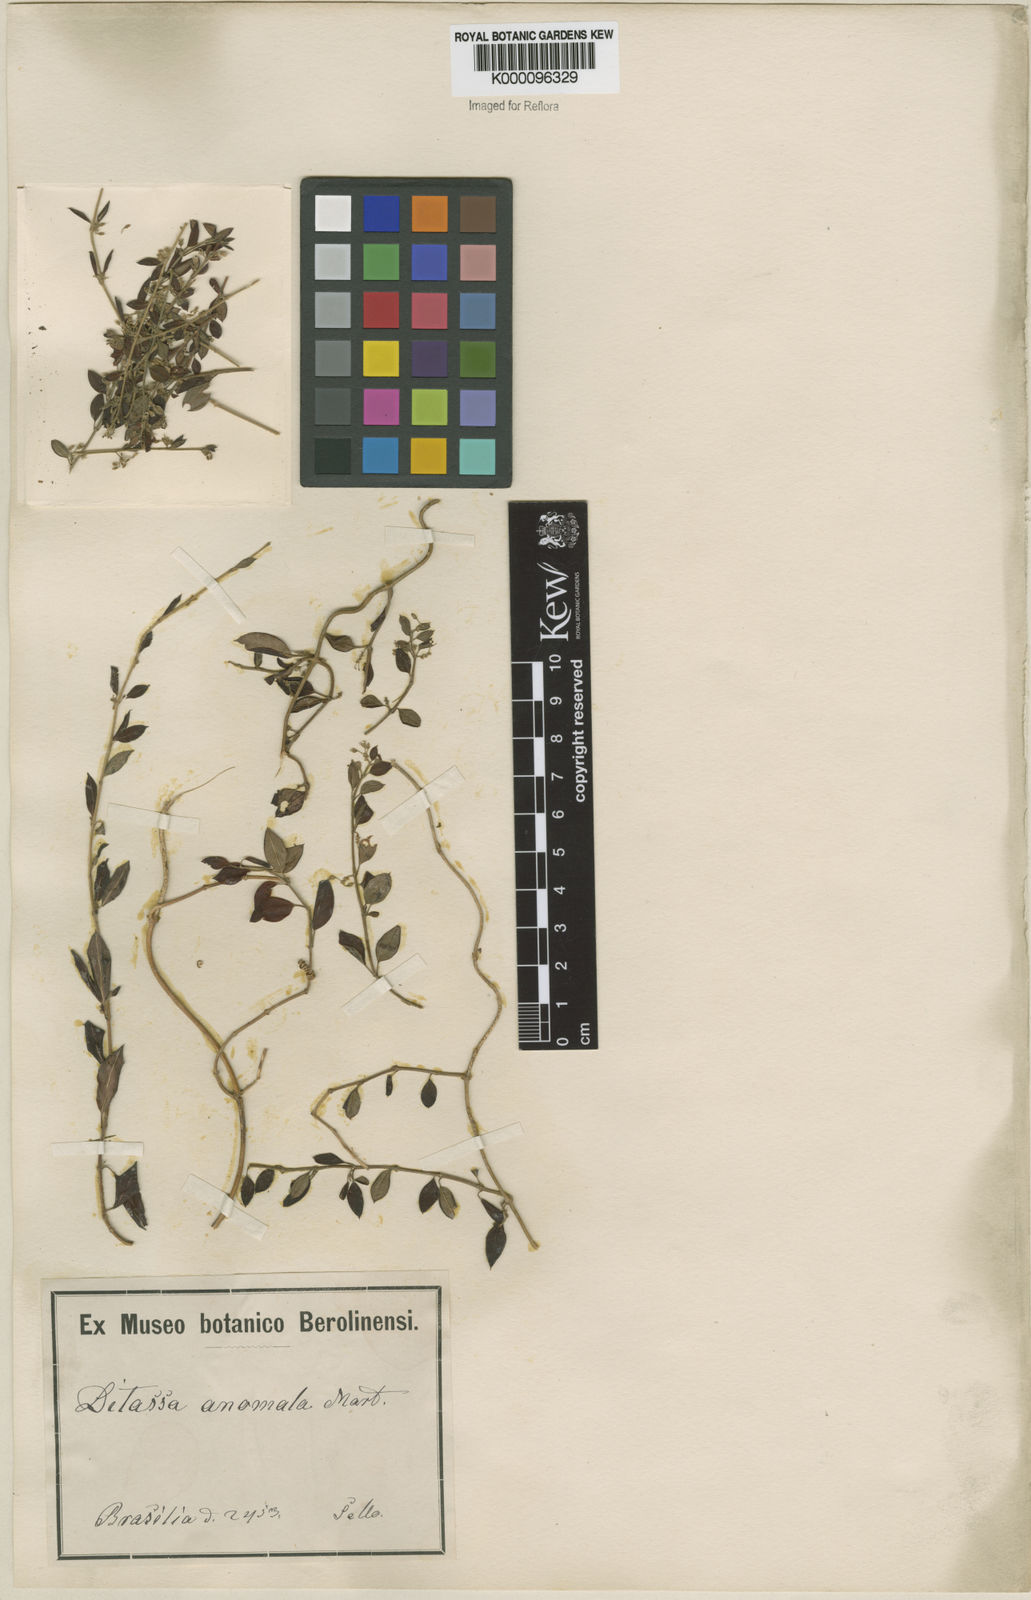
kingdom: Plantae
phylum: Tracheophyta
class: Magnoliopsida
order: Gentianales
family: Apocynaceae
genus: Metastelma
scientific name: Metastelma burchellii
